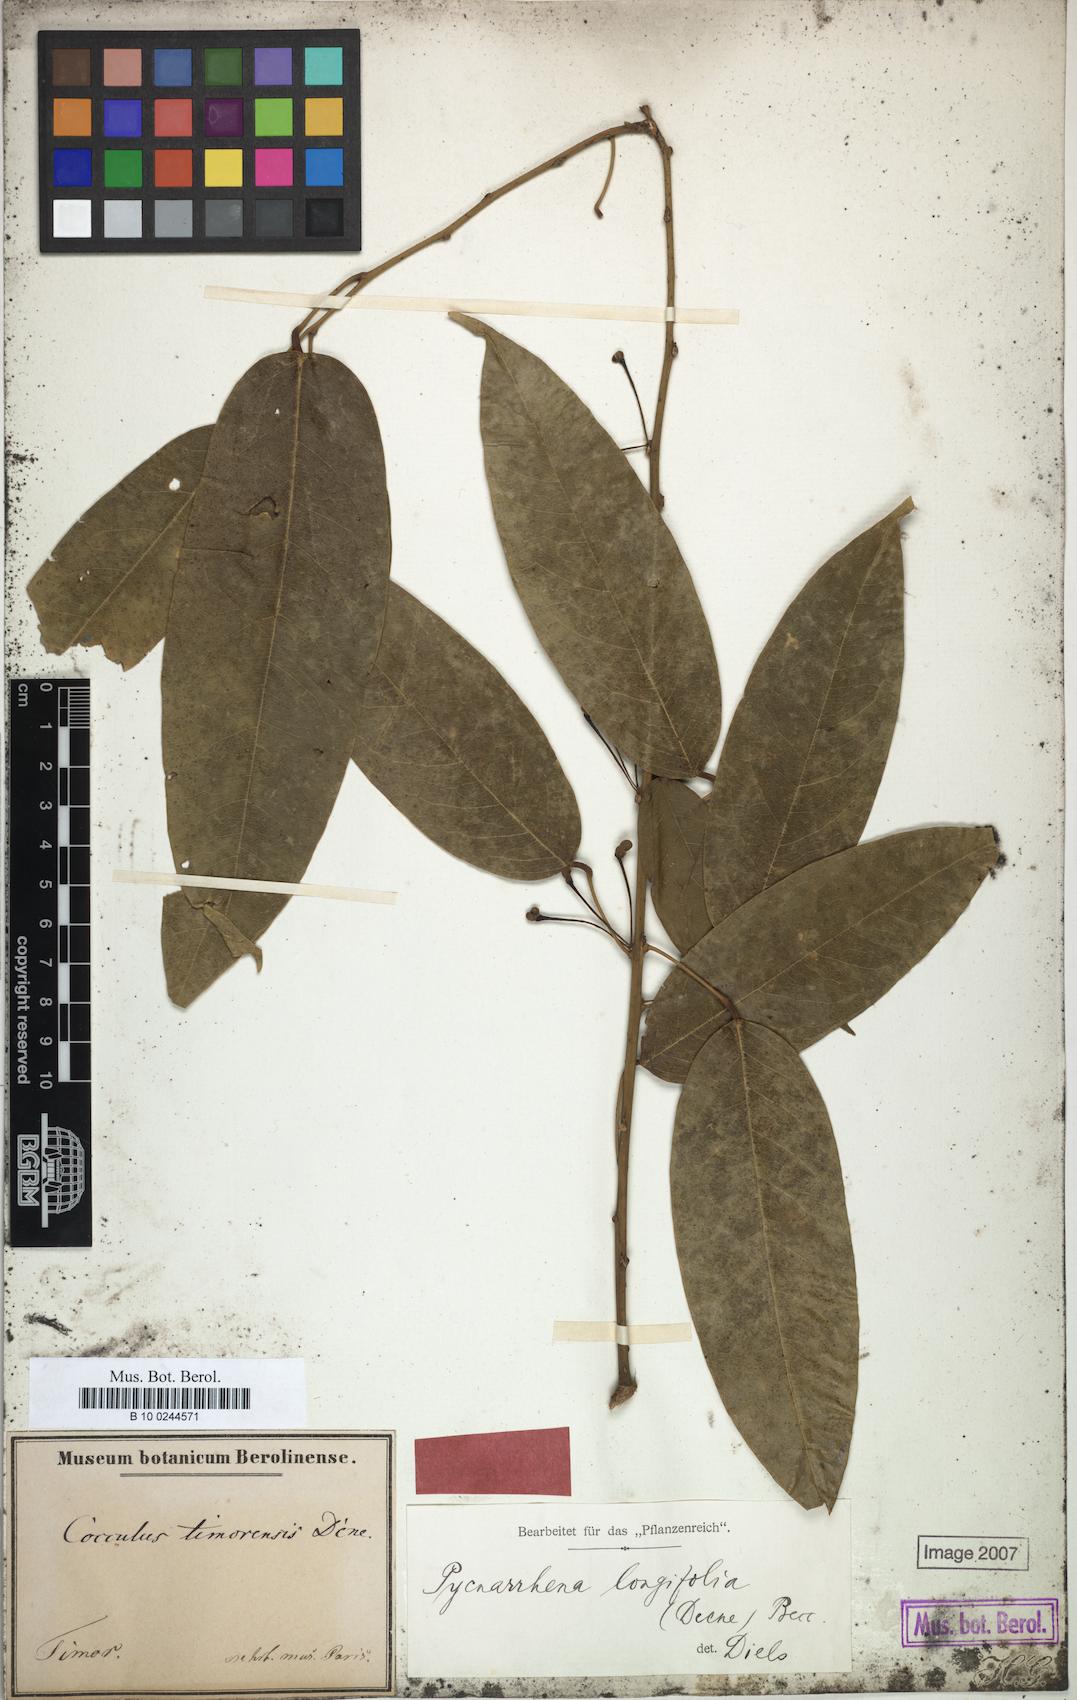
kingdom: Plantae
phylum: Tracheophyta
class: Magnoliopsida
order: Ranunculales
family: Menispermaceae
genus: Pycnarrhena
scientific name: Pycnarrhena longifolia
